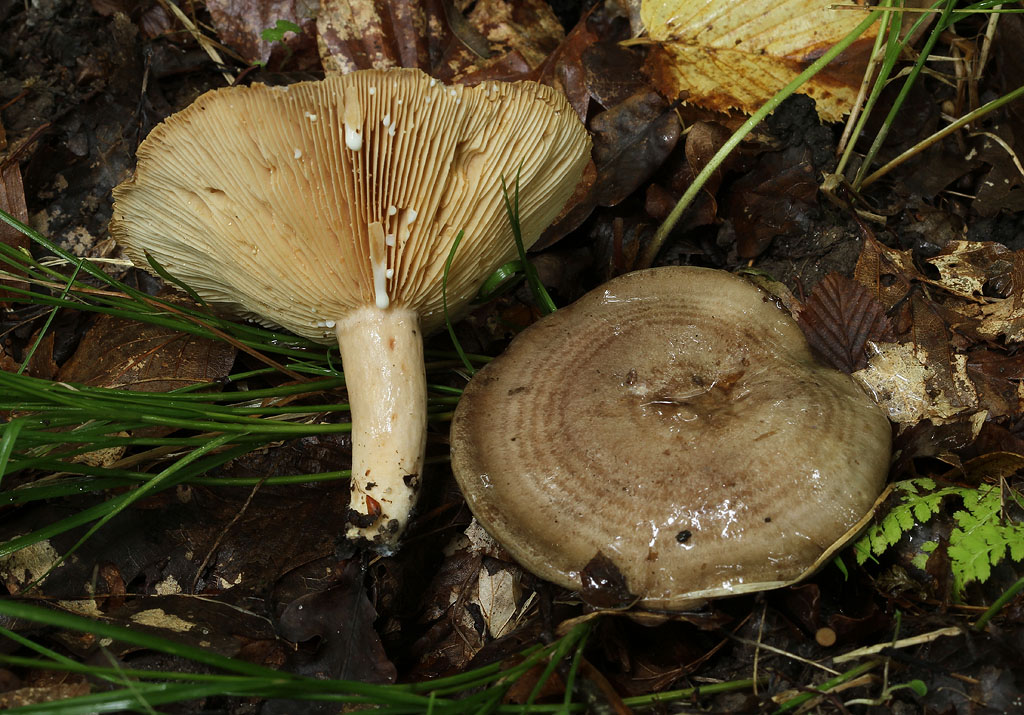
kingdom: Fungi
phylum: Basidiomycota
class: Agaricomycetes
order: Russulales
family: Russulaceae
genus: Lactarius
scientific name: Lactarius circellatus
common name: avnbøg-mælkehat
